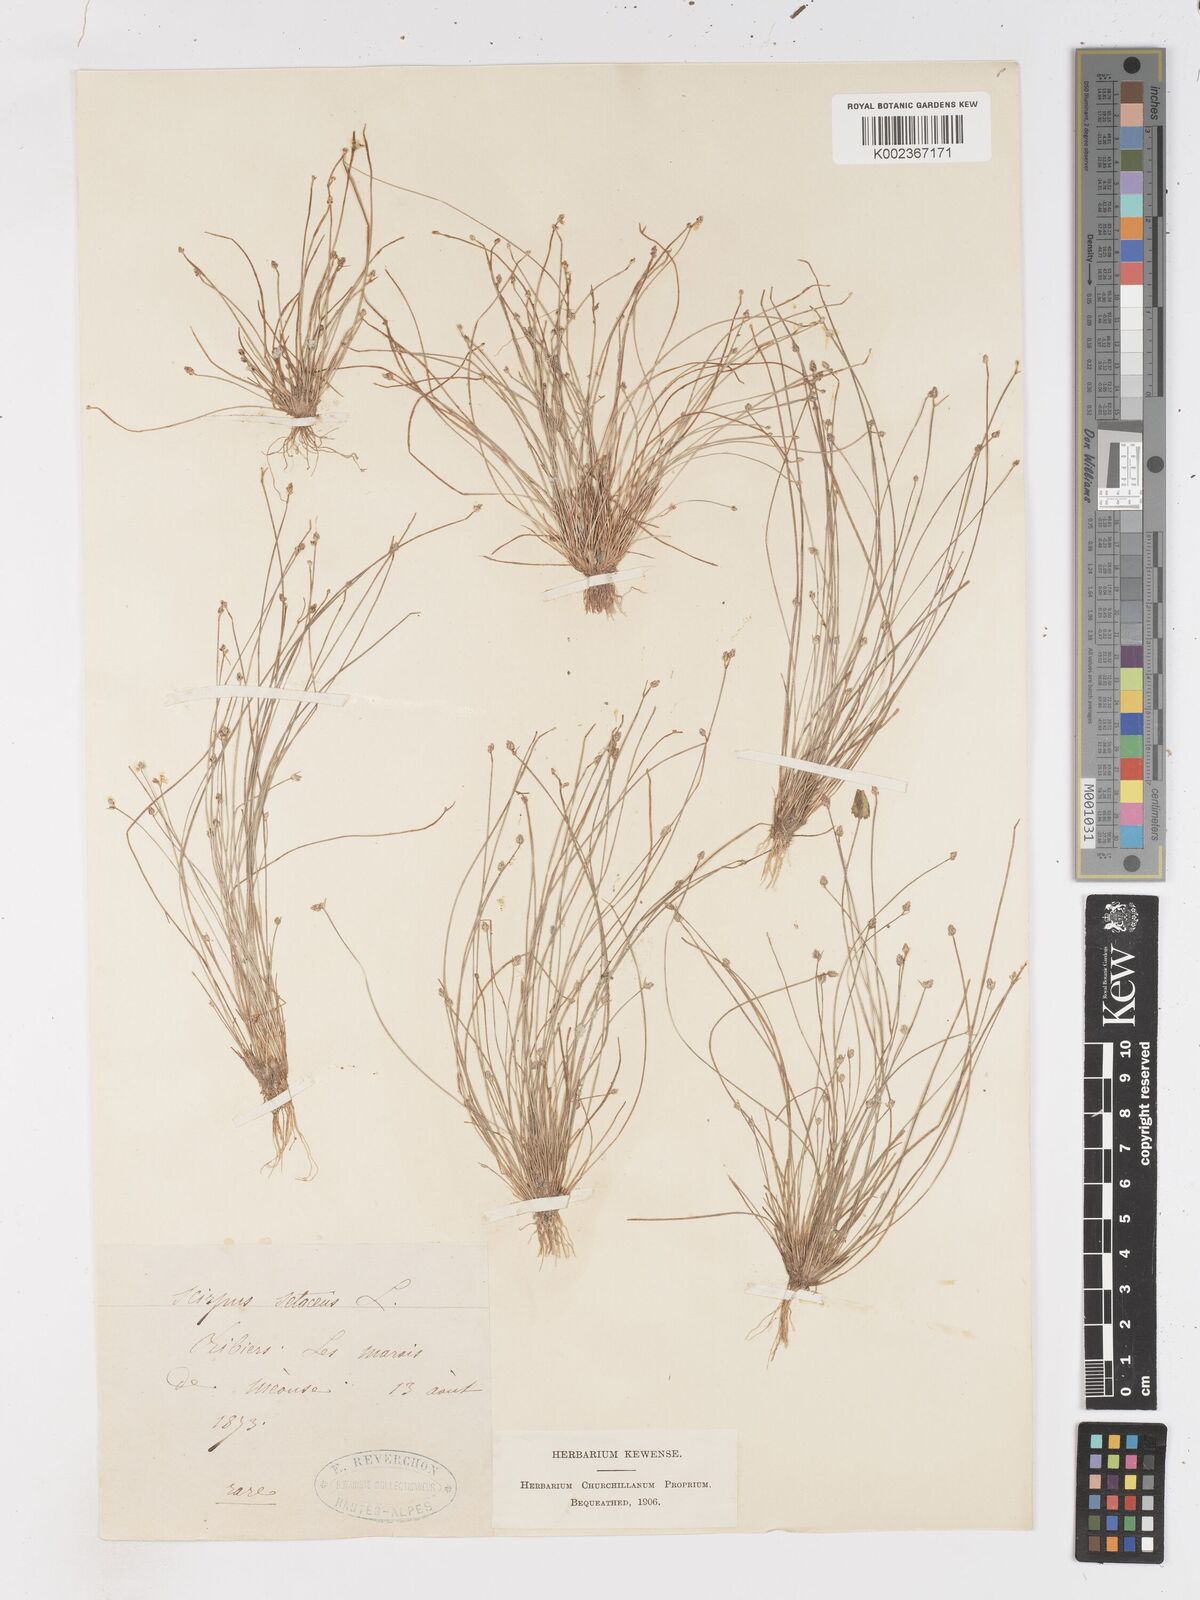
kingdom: Plantae
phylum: Tracheophyta
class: Liliopsida
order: Poales
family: Cyperaceae
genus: Isolepis
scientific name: Isolepis setacea
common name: Bristle club-rush
